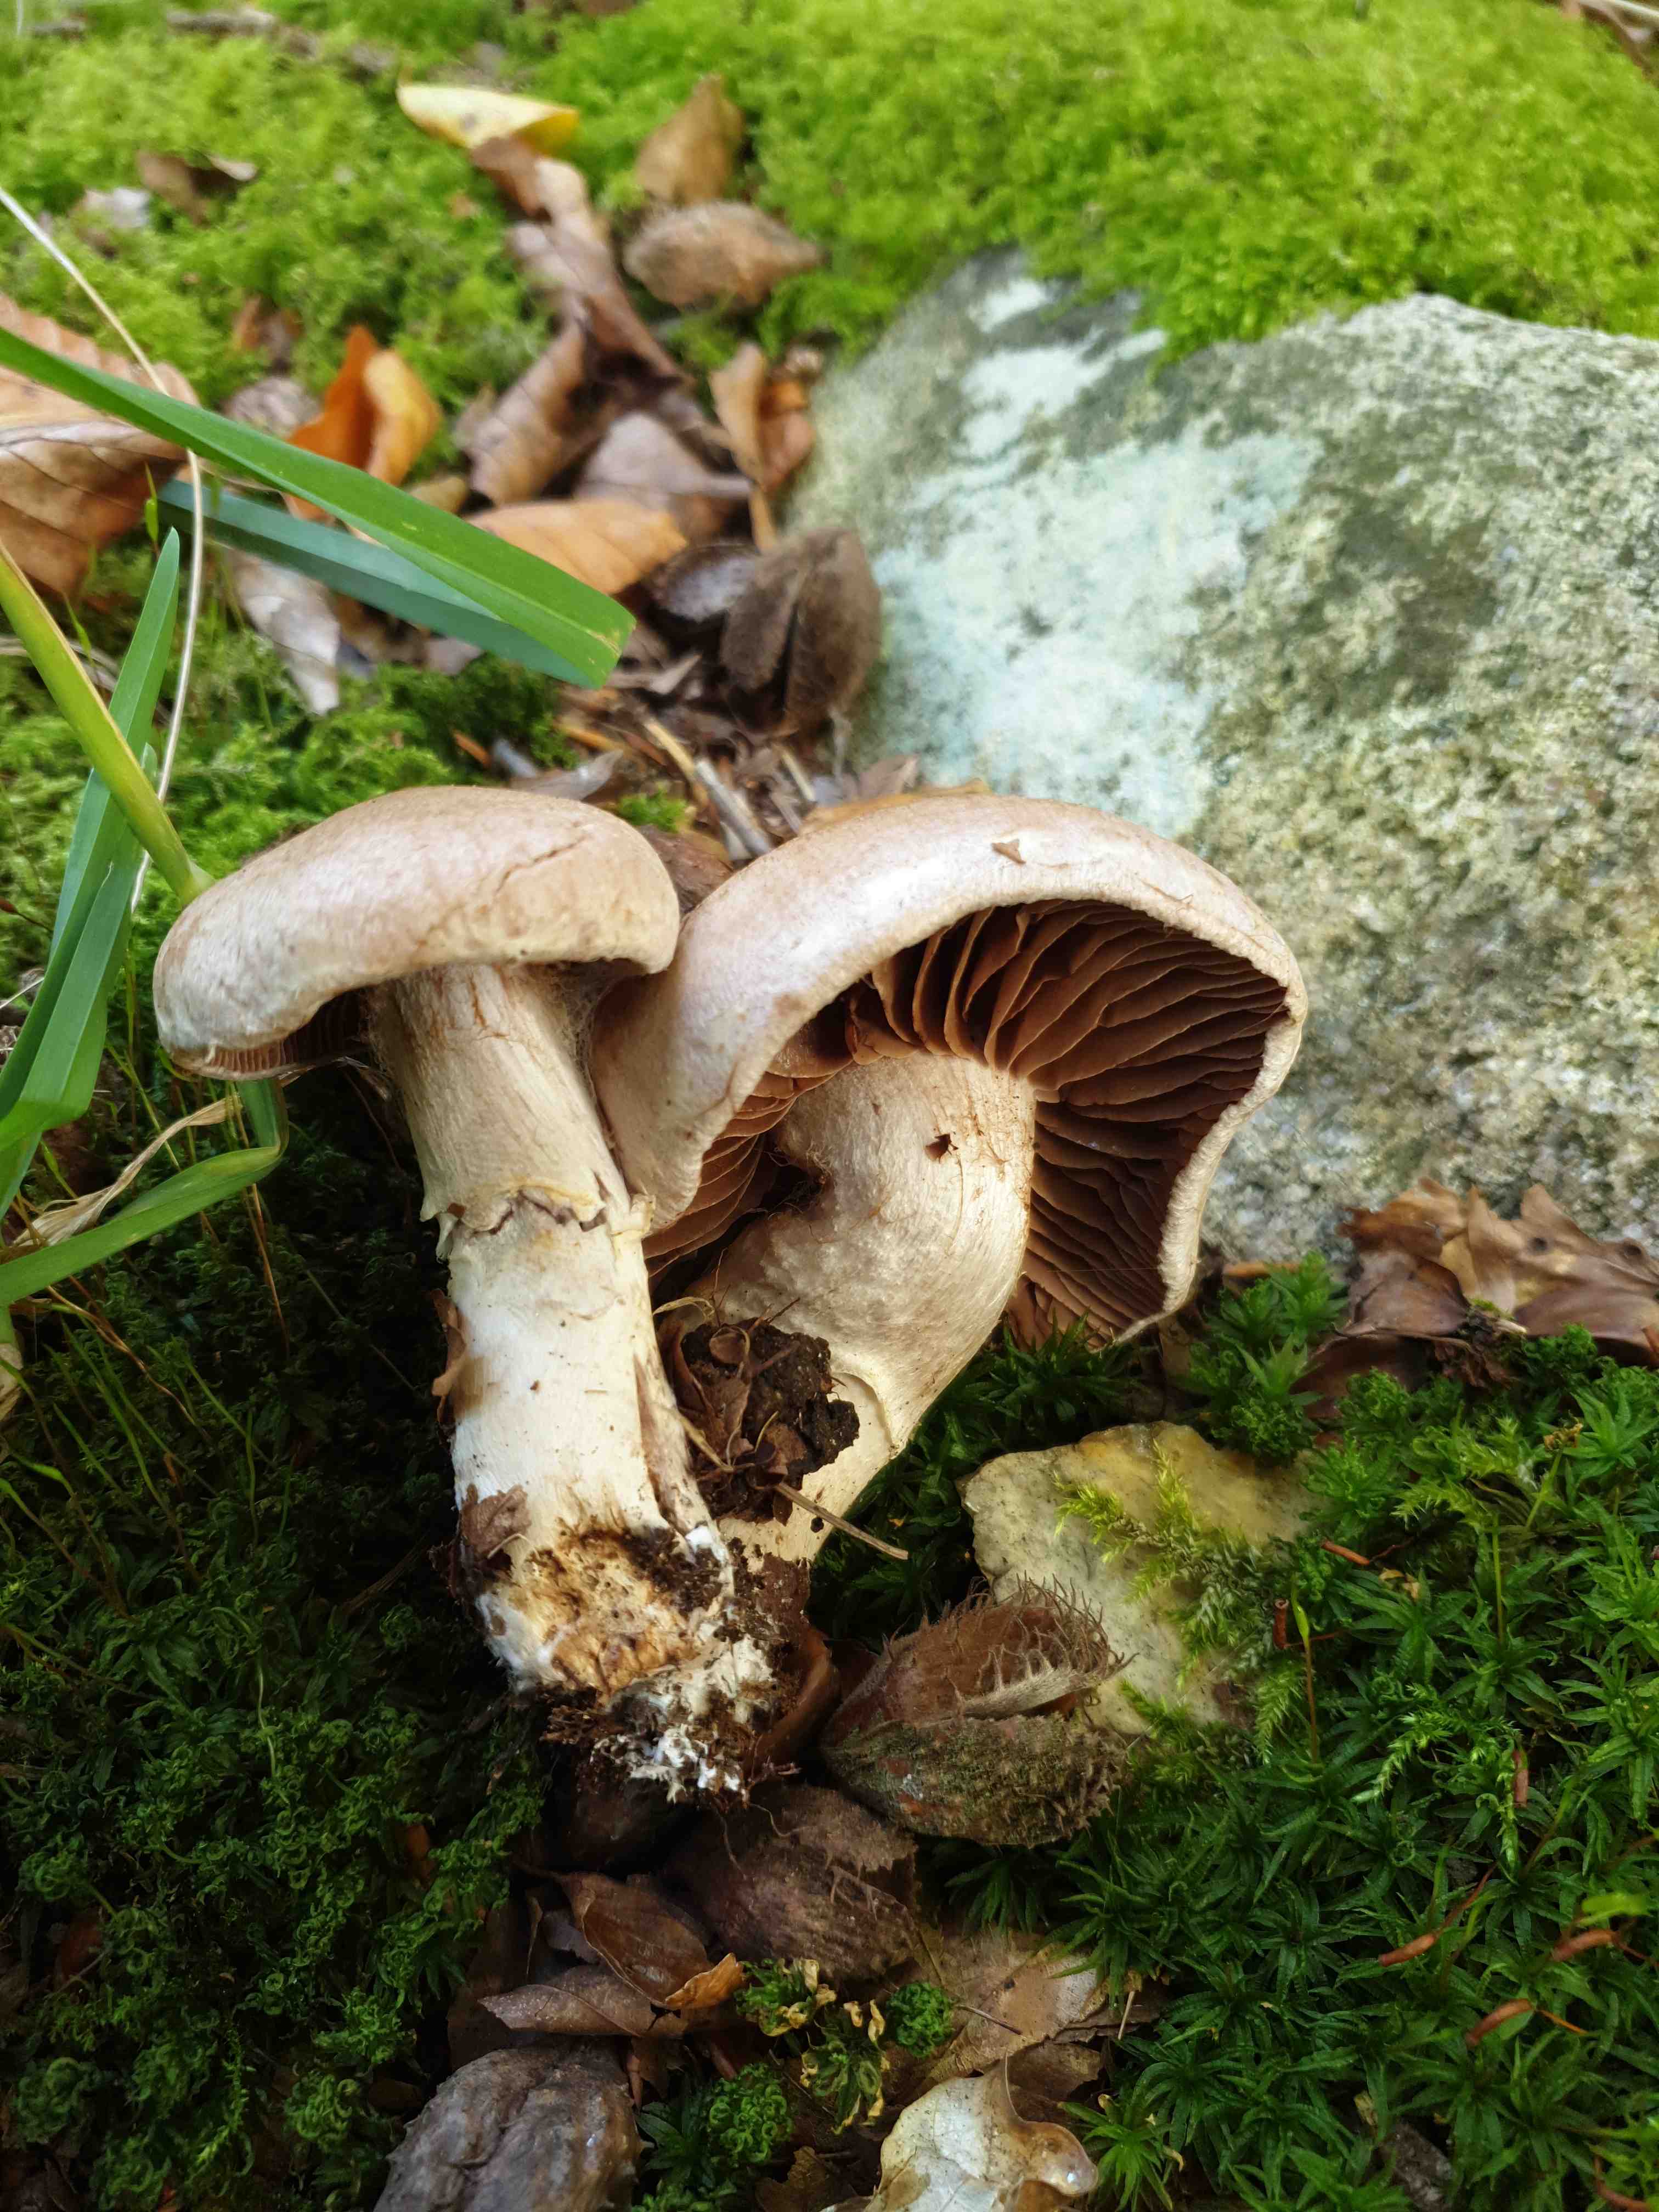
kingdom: Fungi
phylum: Basidiomycota
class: Agaricomycetes
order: Agaricales
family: Cortinariaceae
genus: Cortinarius
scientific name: Cortinarius torvus
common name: champignonagtig slørhat
